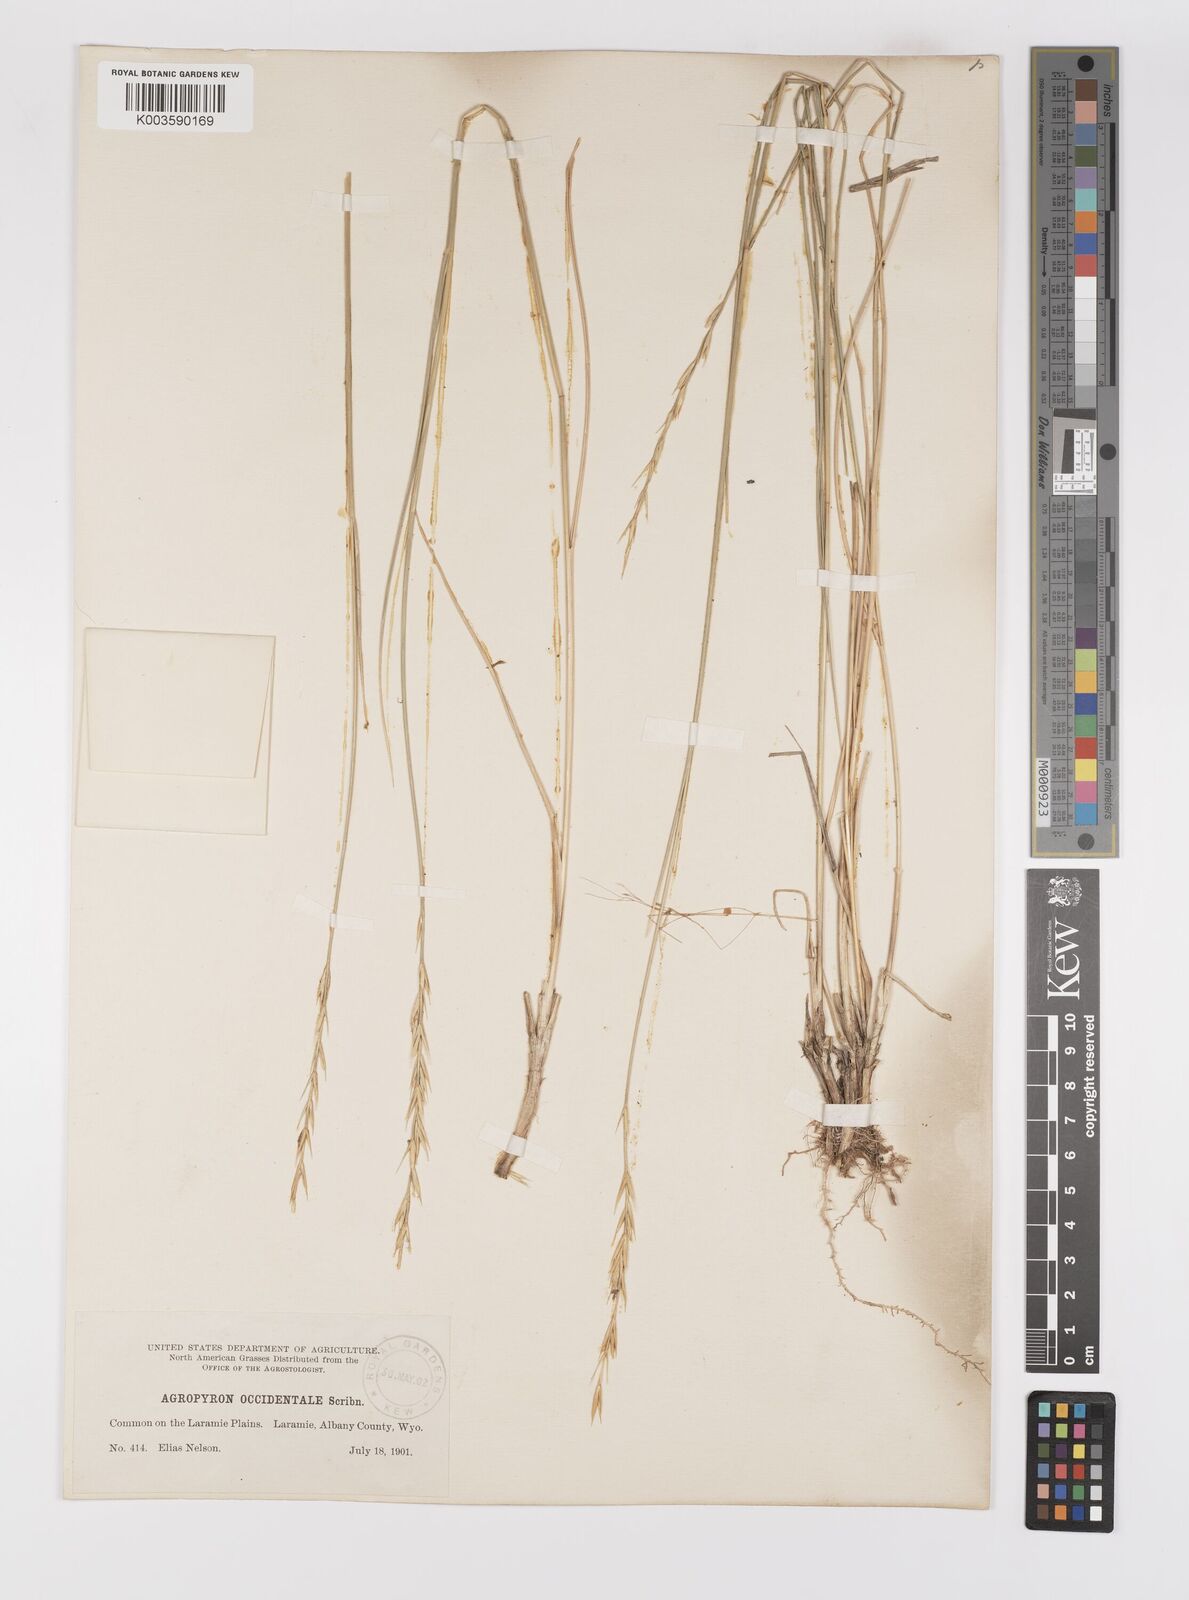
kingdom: Plantae
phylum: Tracheophyta
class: Liliopsida
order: Poales
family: Poaceae
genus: Elymus
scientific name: Elymus smithii
